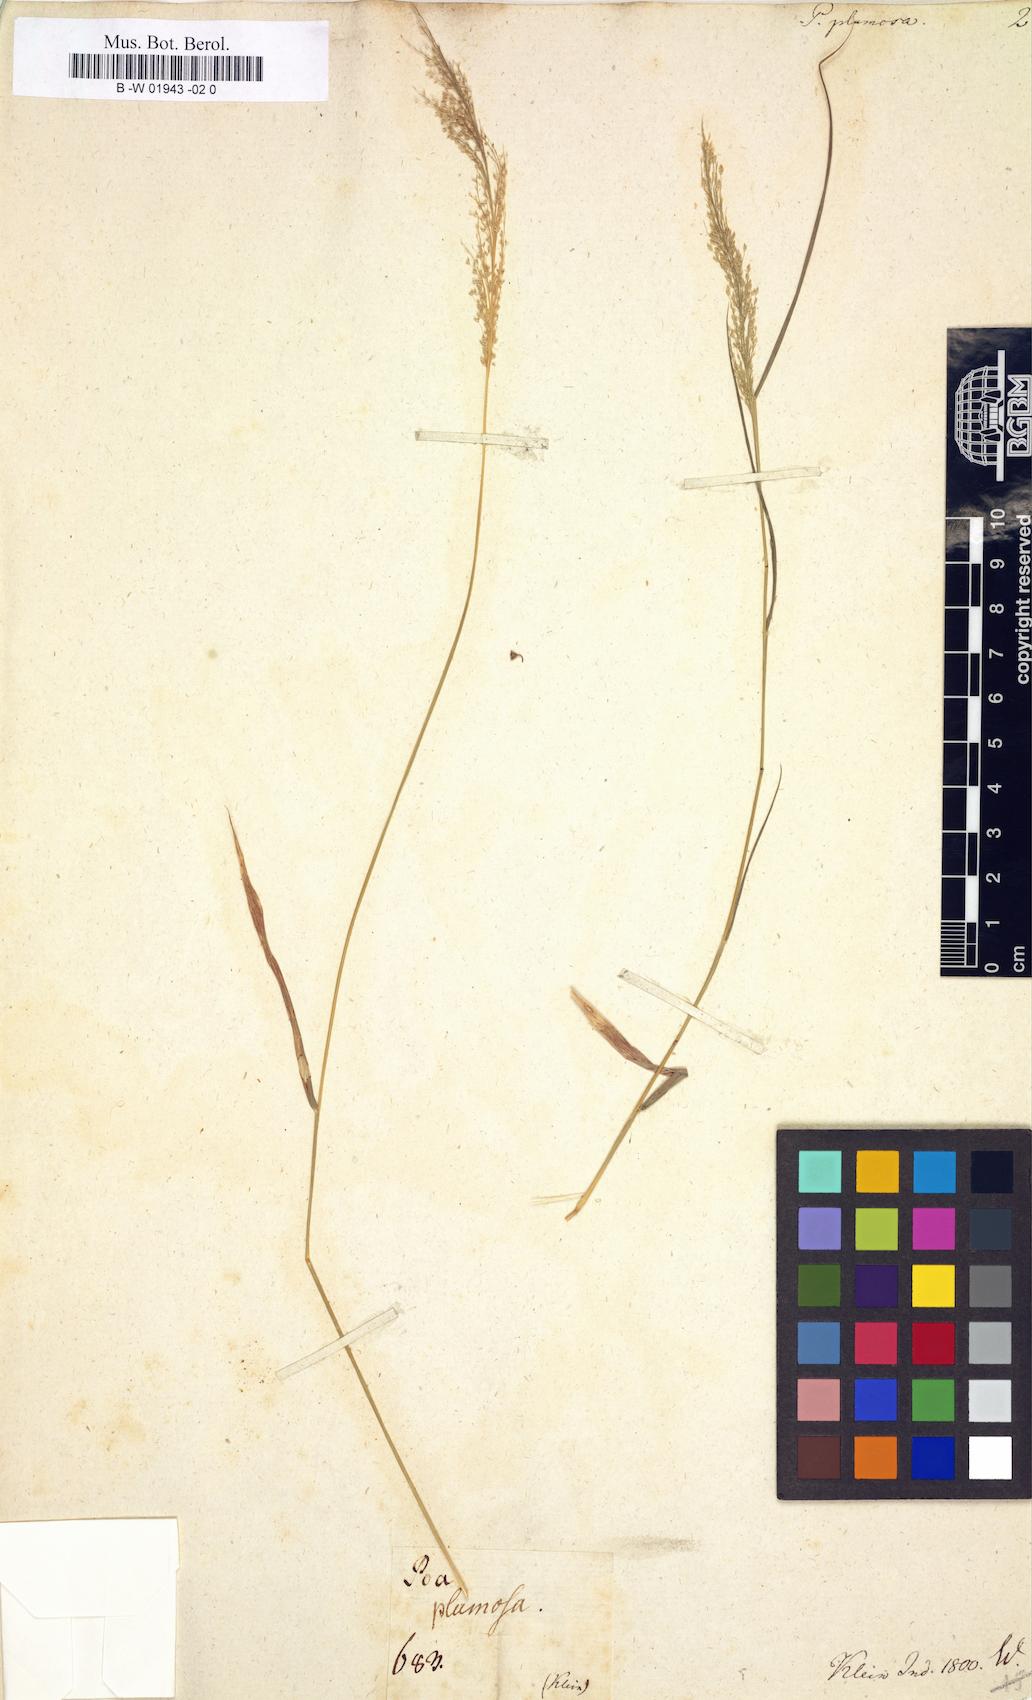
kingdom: Plantae
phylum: Tracheophyta
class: Liliopsida
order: Poales
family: Poaceae
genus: Eragrostis
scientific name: Eragrostis
